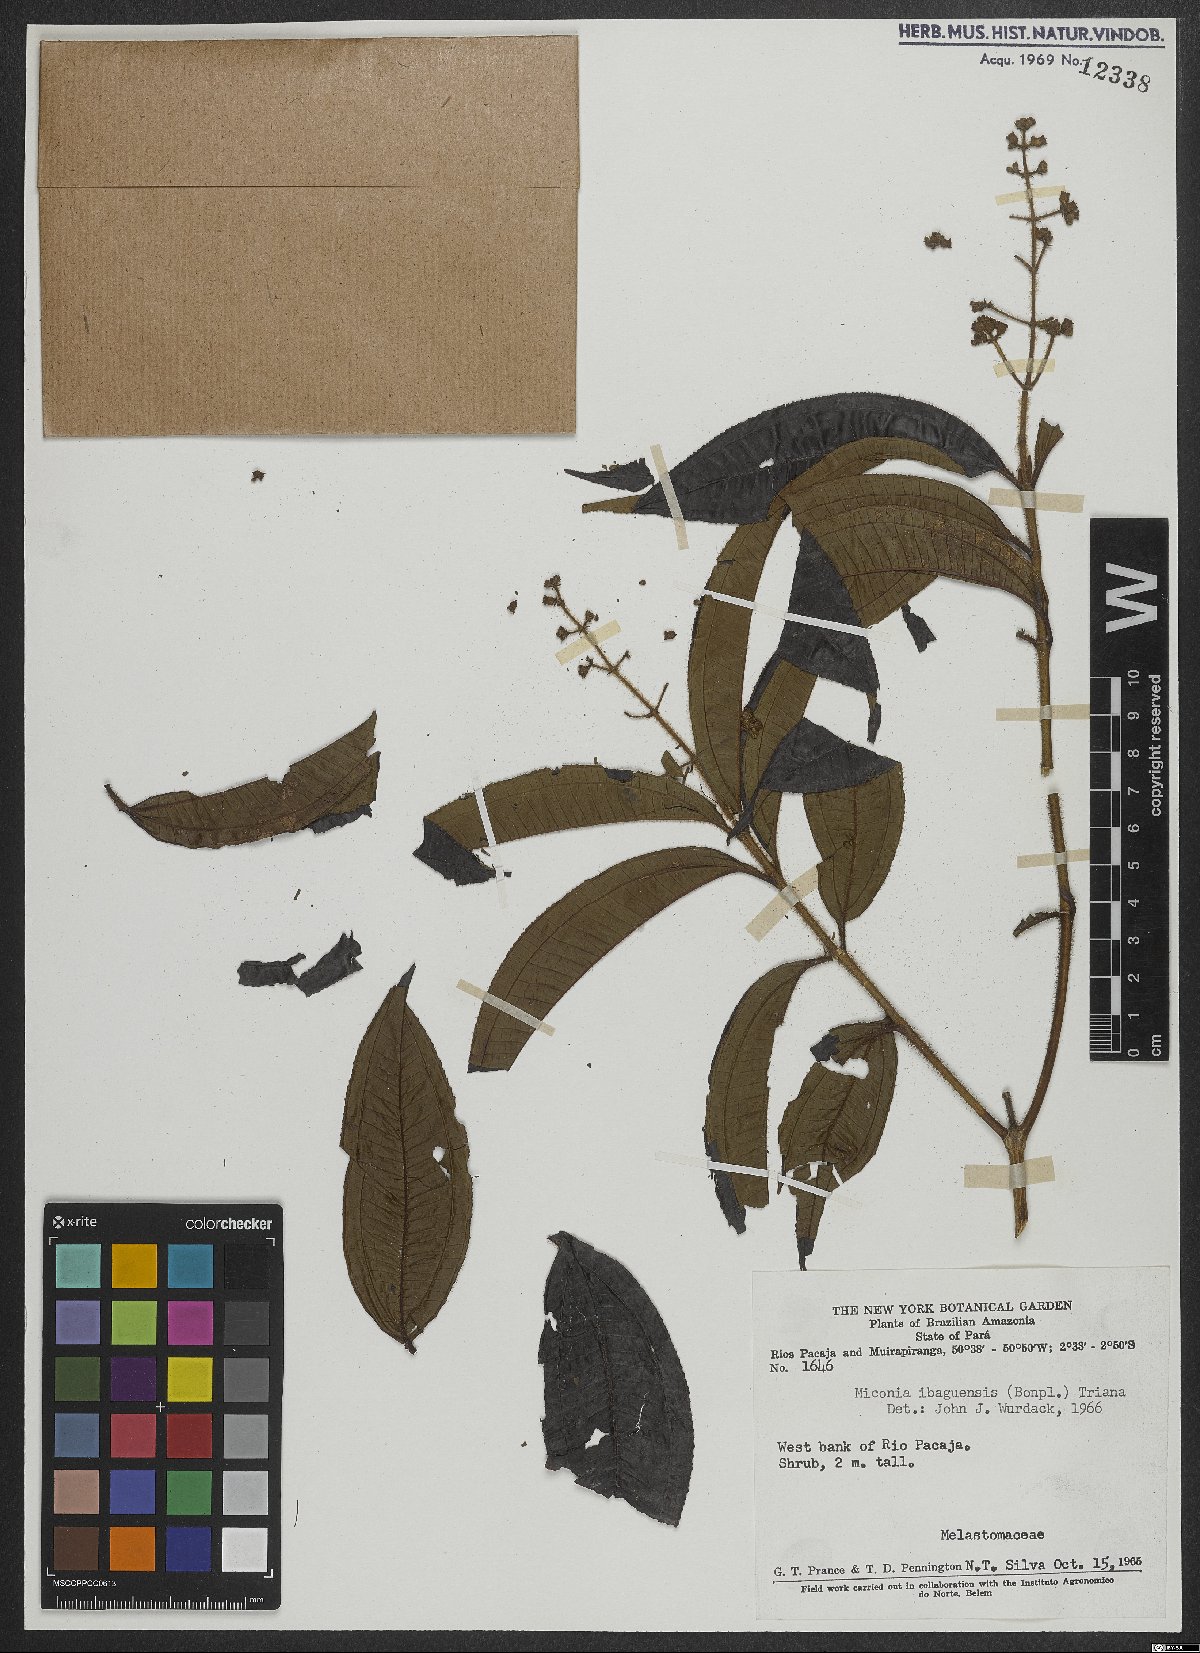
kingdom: Plantae
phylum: Tracheophyta
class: Magnoliopsida
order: Myrtales
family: Melastomataceae
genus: Miconia
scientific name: Miconia ibaguensis
